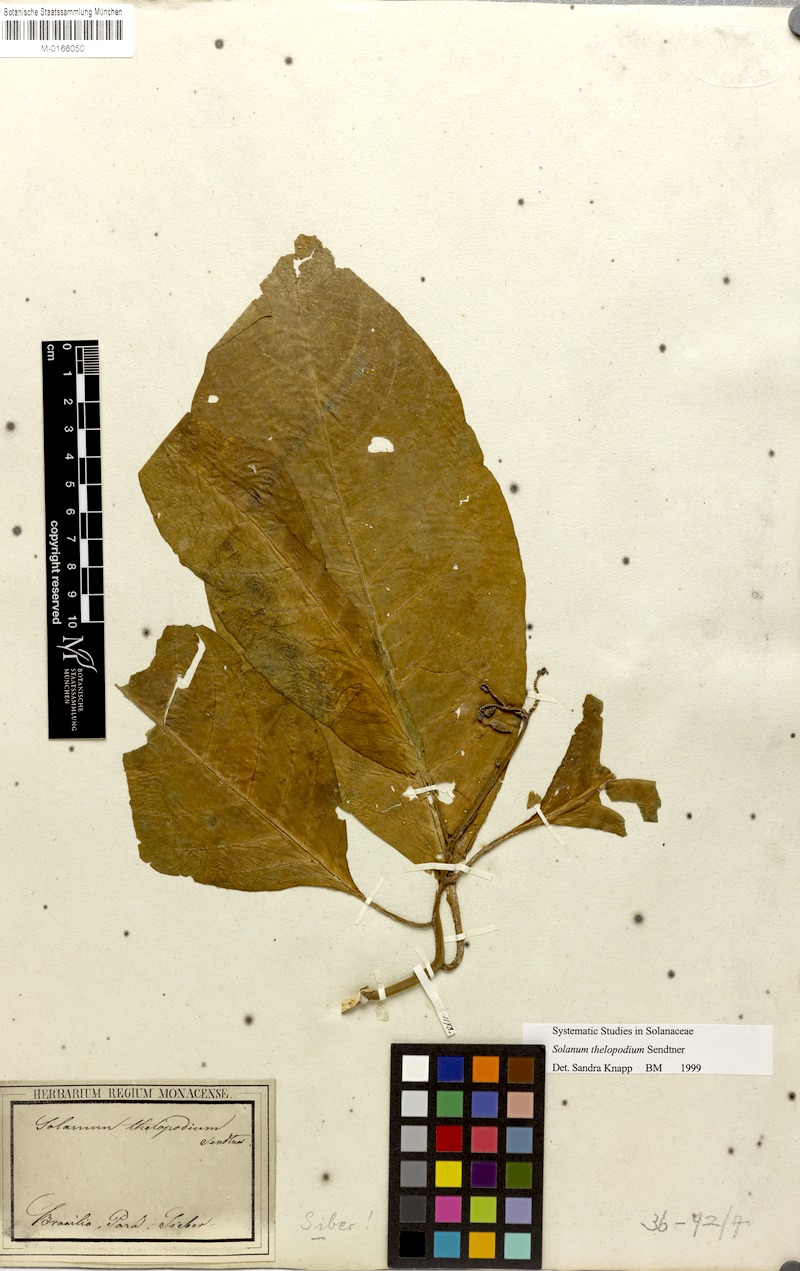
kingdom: Plantae
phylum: Tracheophyta
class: Magnoliopsida
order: Solanales
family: Solanaceae
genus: Solanum
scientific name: Solanum thelopodium
